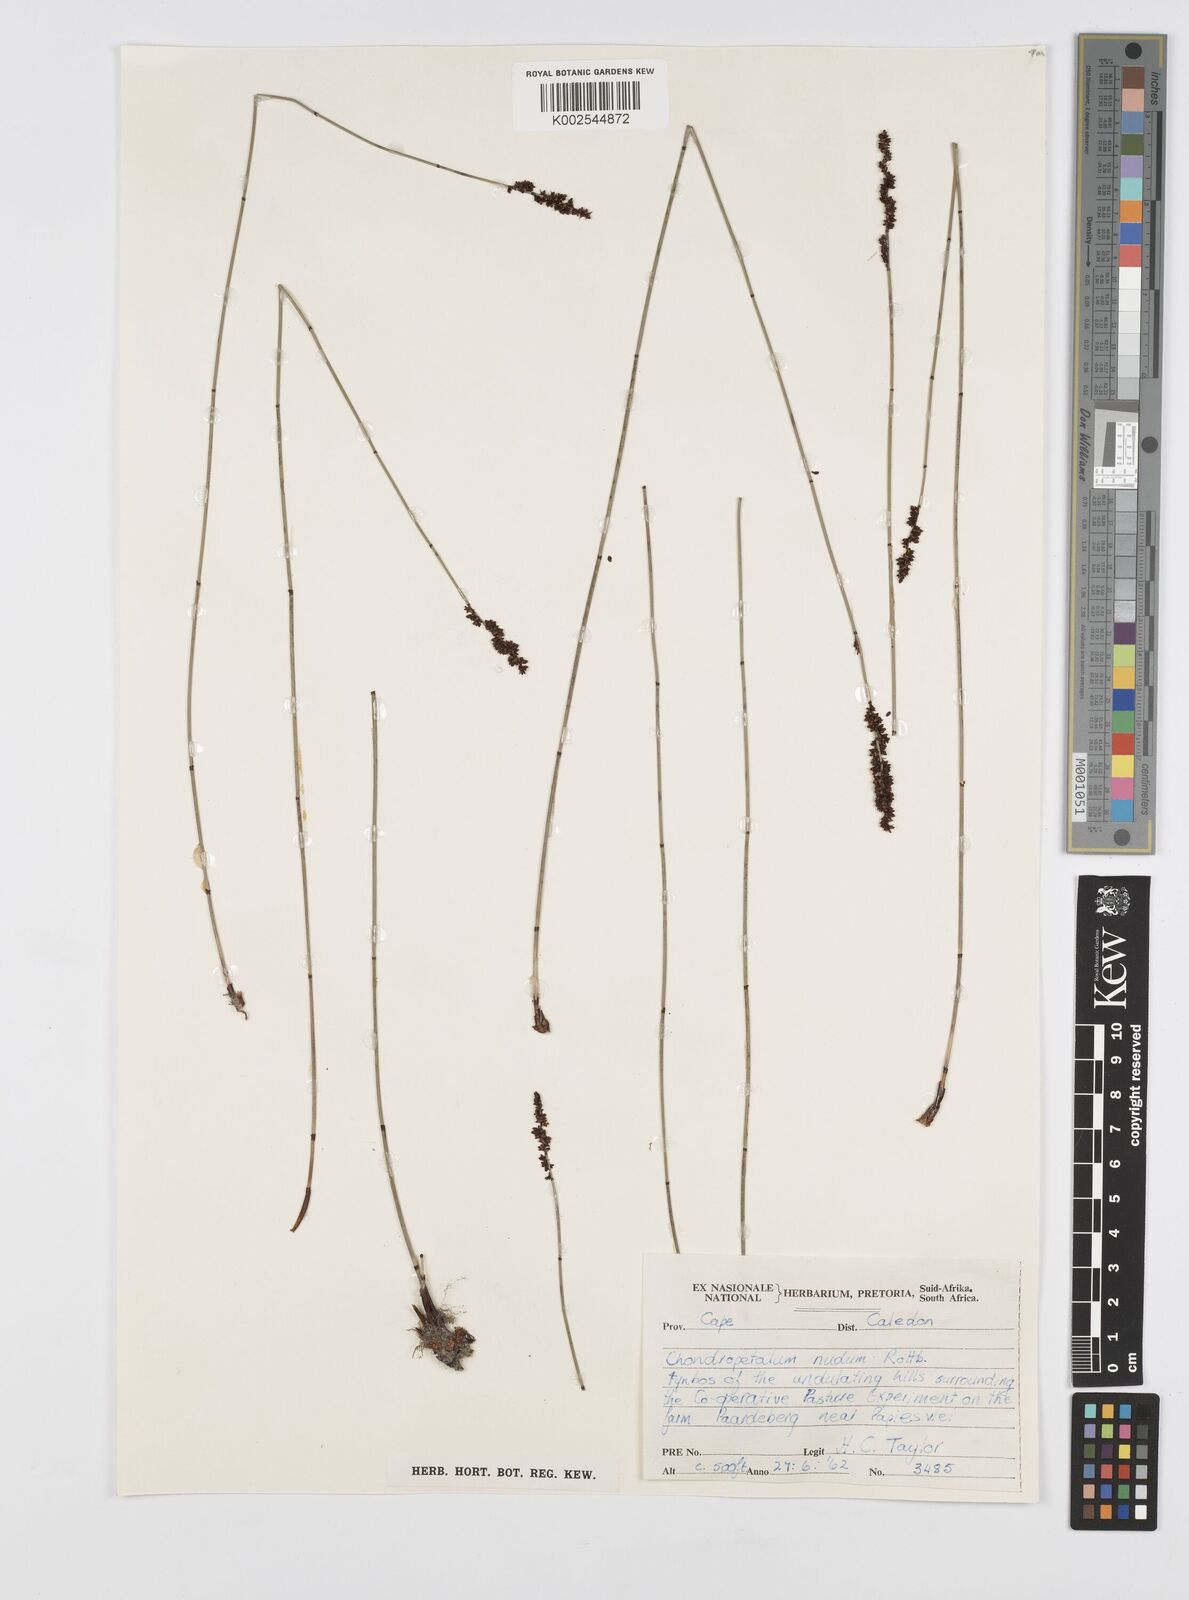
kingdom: Plantae
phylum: Tracheophyta
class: Liliopsida
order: Poales
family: Restionaceae
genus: Elegia
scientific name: Elegia nuda
